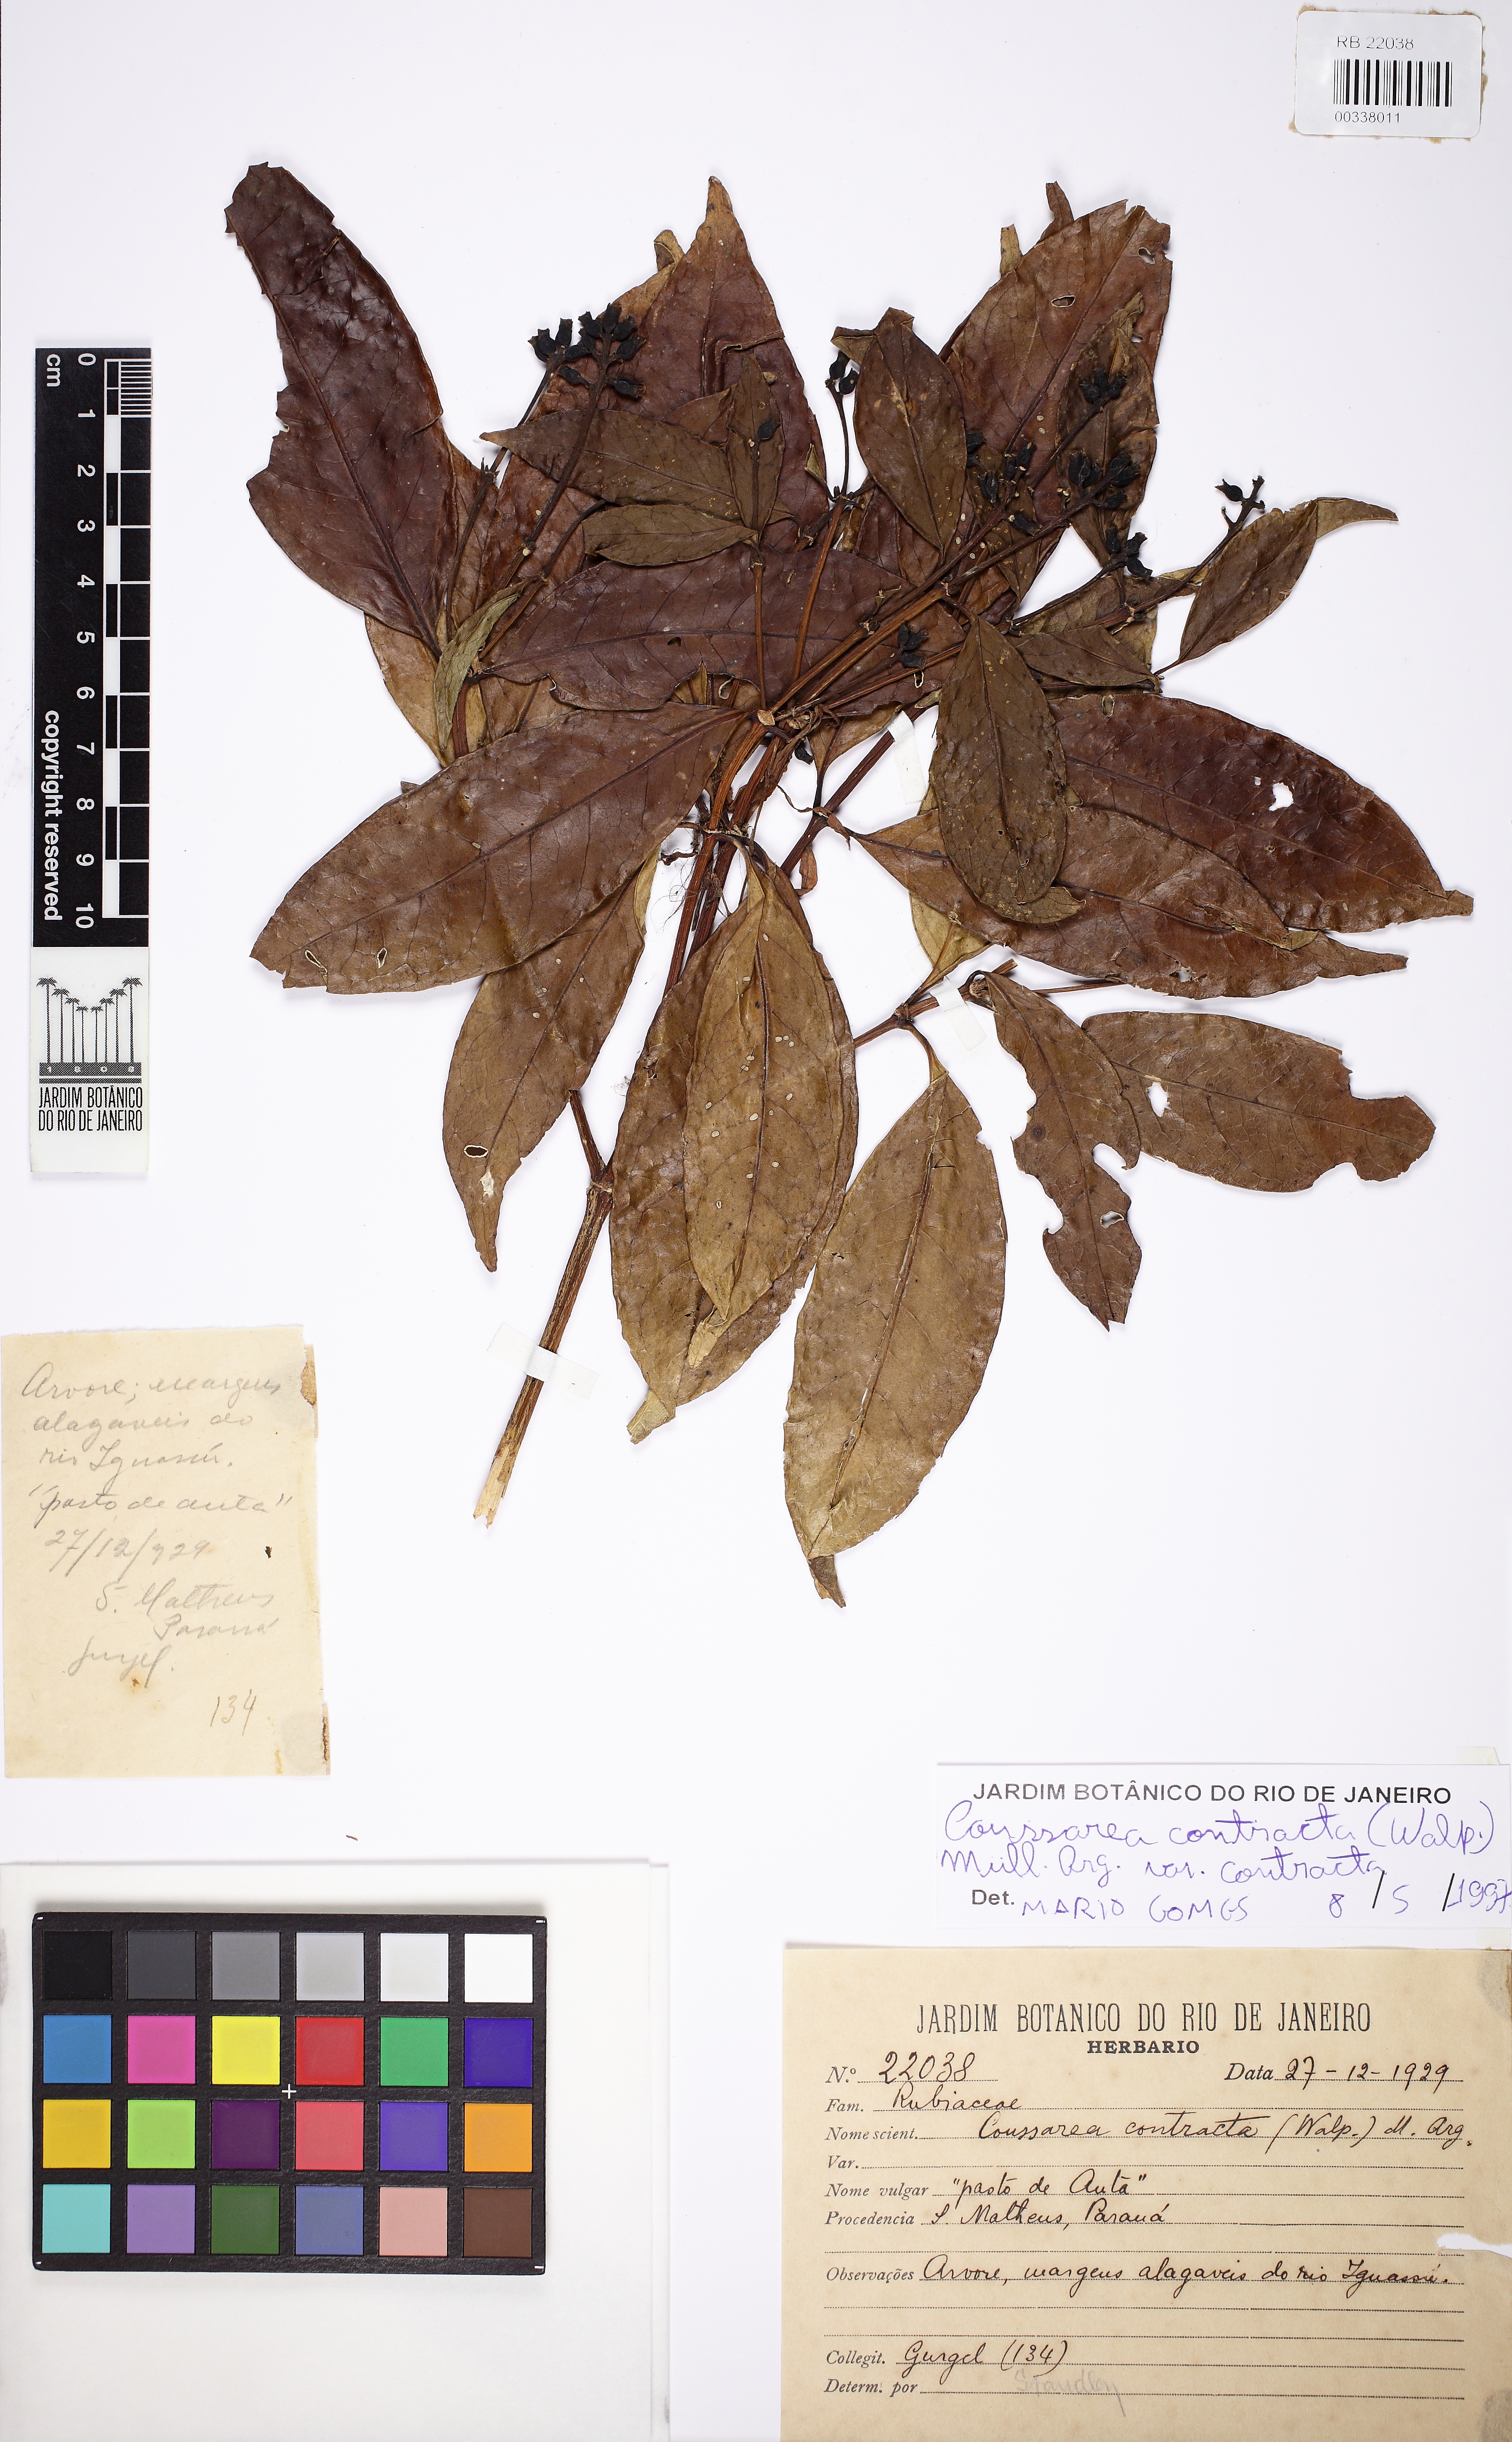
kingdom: Plantae
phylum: Tracheophyta
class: Magnoliopsida
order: Gentianales
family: Rubiaceae
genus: Coussarea
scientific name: Coussarea contracta
